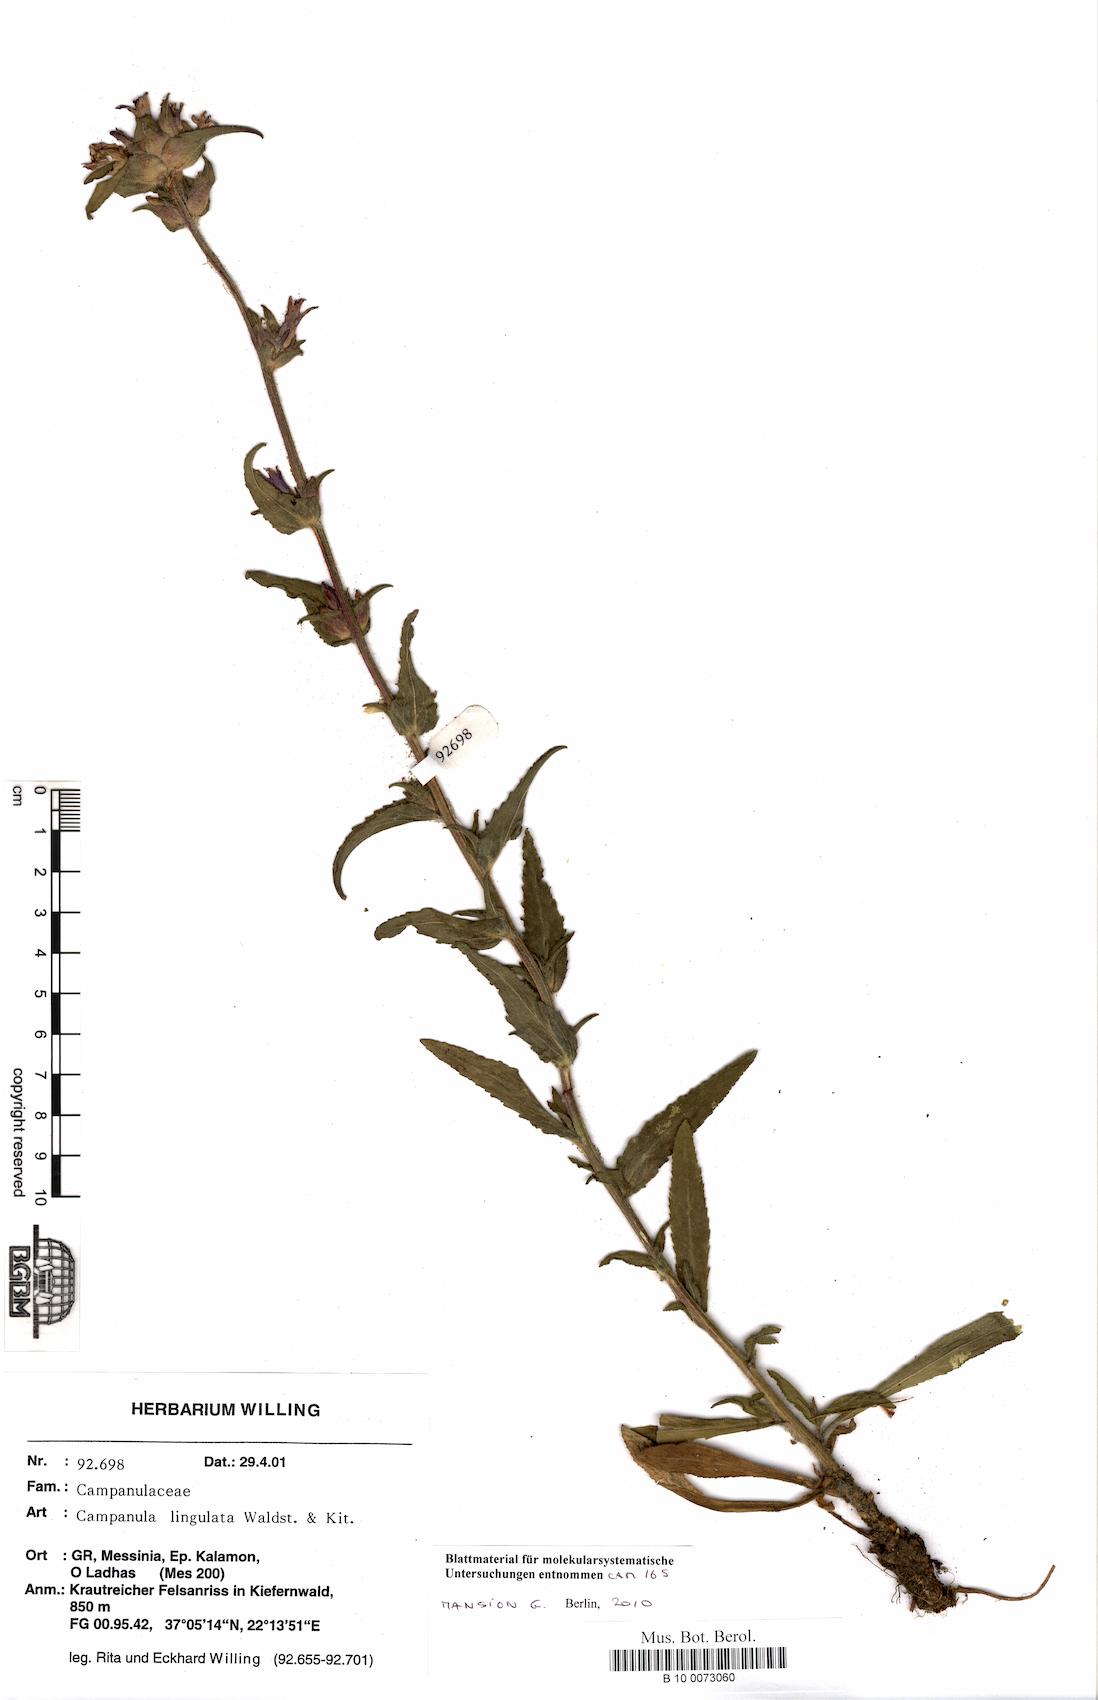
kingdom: Plantae
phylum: Tracheophyta
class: Magnoliopsida
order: Asterales
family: Campanulaceae
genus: Campanula
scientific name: Campanula lingulata
